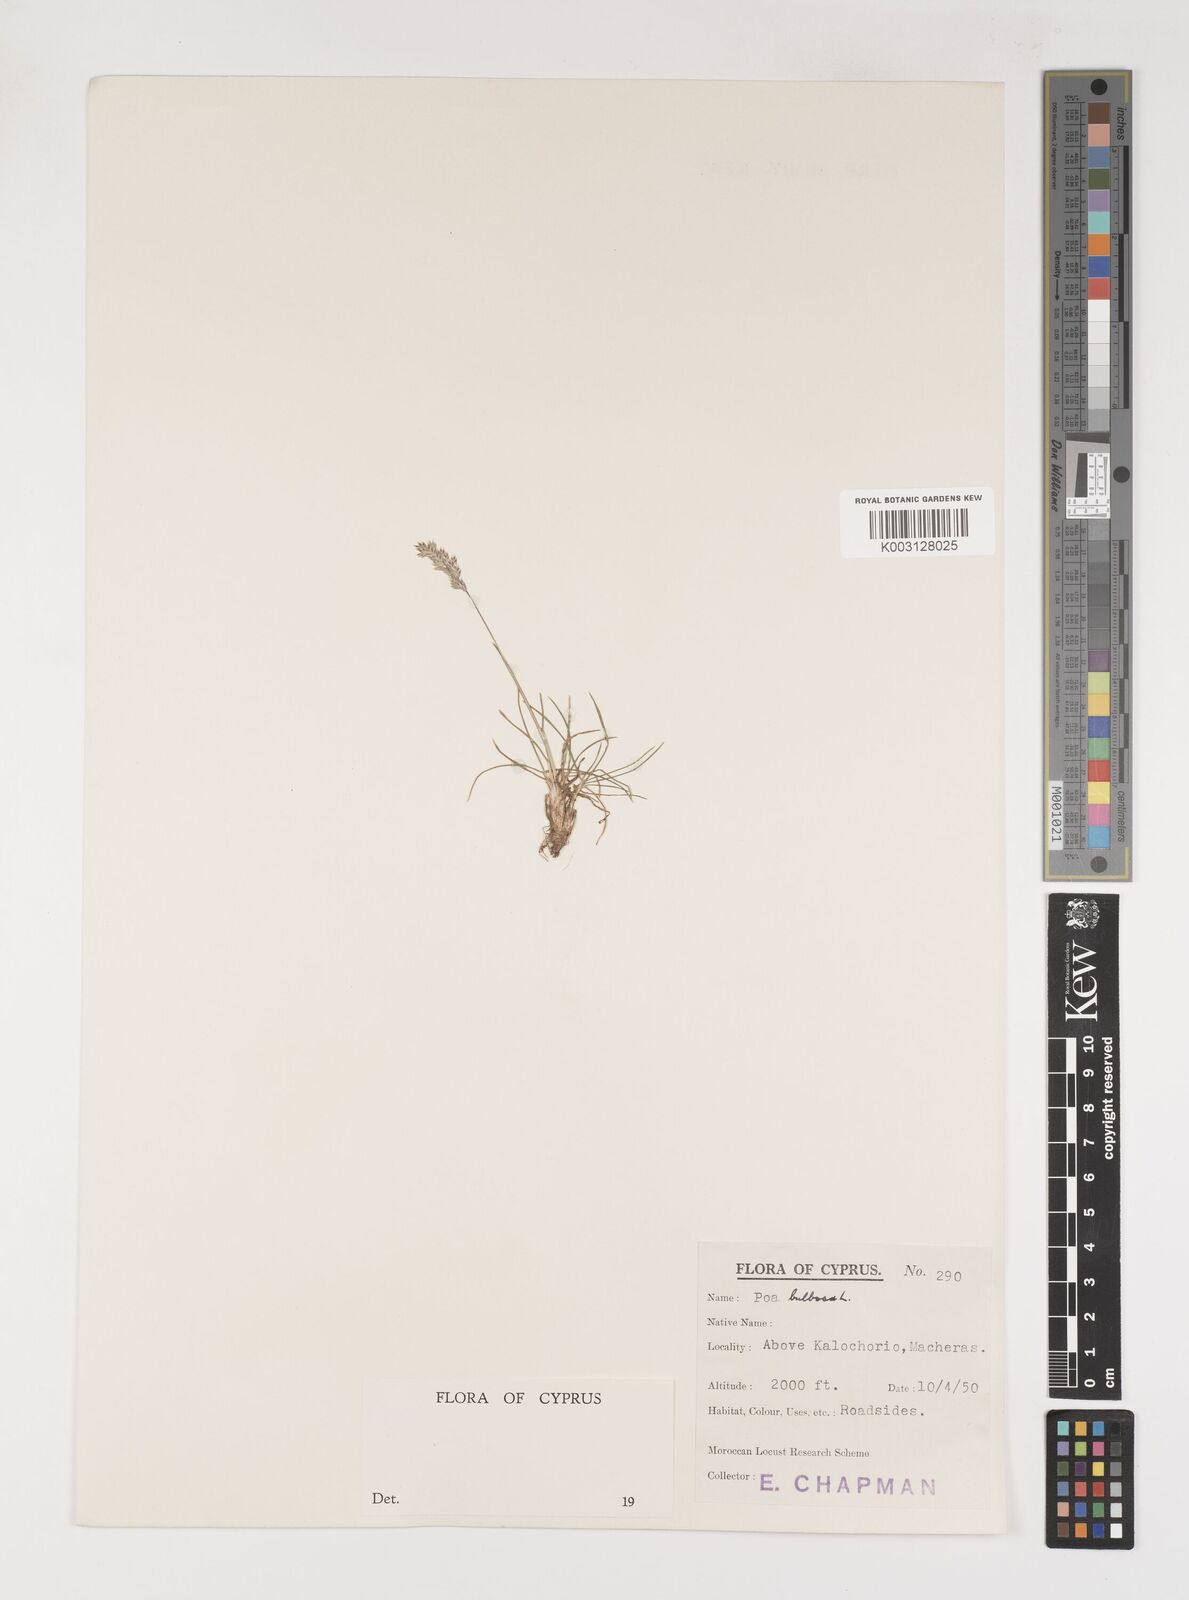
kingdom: Plantae
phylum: Tracheophyta
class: Liliopsida
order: Poales
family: Poaceae
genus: Poa
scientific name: Poa bulbosa
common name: Bulbous bluegrass
